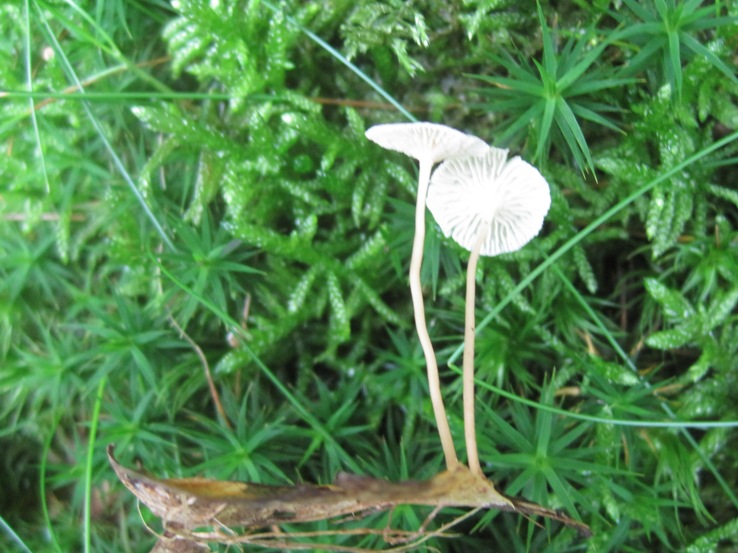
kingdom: Fungi
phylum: Basidiomycota
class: Agaricomycetes
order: Agaricales
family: Omphalotaceae
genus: Collybiopsis
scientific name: Collybiopsis vaillantii
